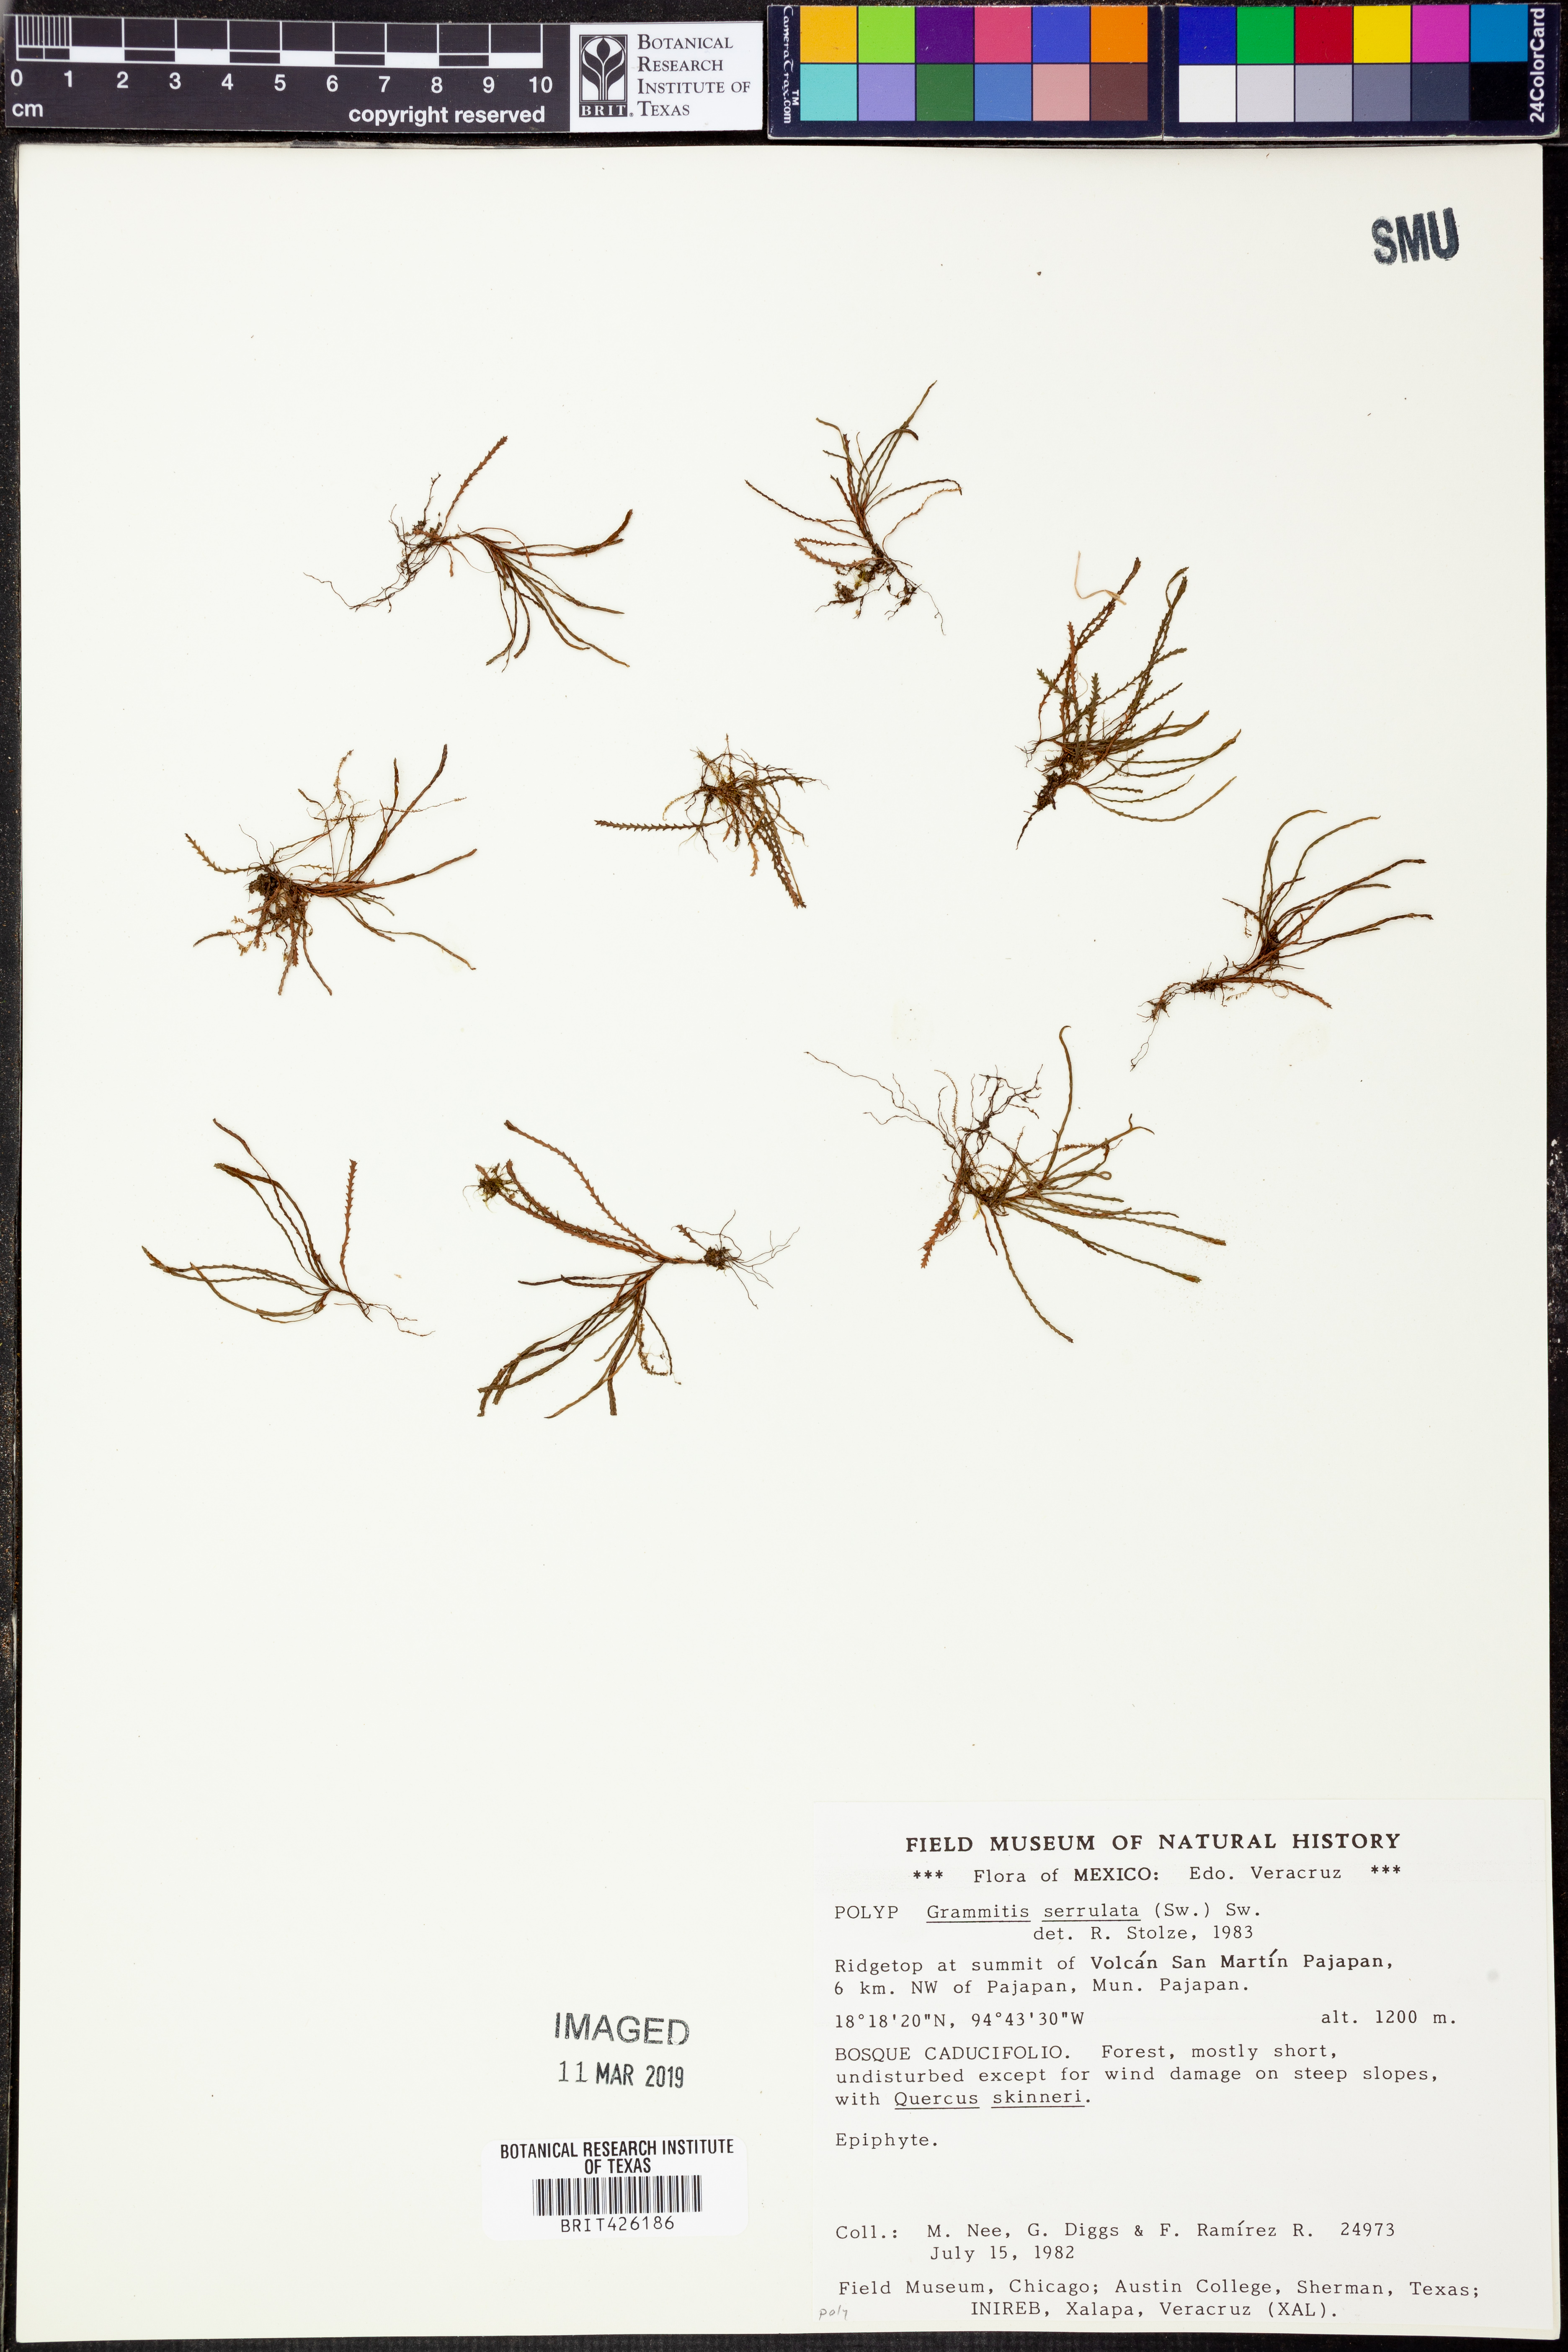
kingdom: Plantae
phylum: Tracheophyta
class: Polypodiopsida
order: Polypodiales
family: Polypodiaceae
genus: Cochlidium
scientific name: Cochlidium serrulatum
